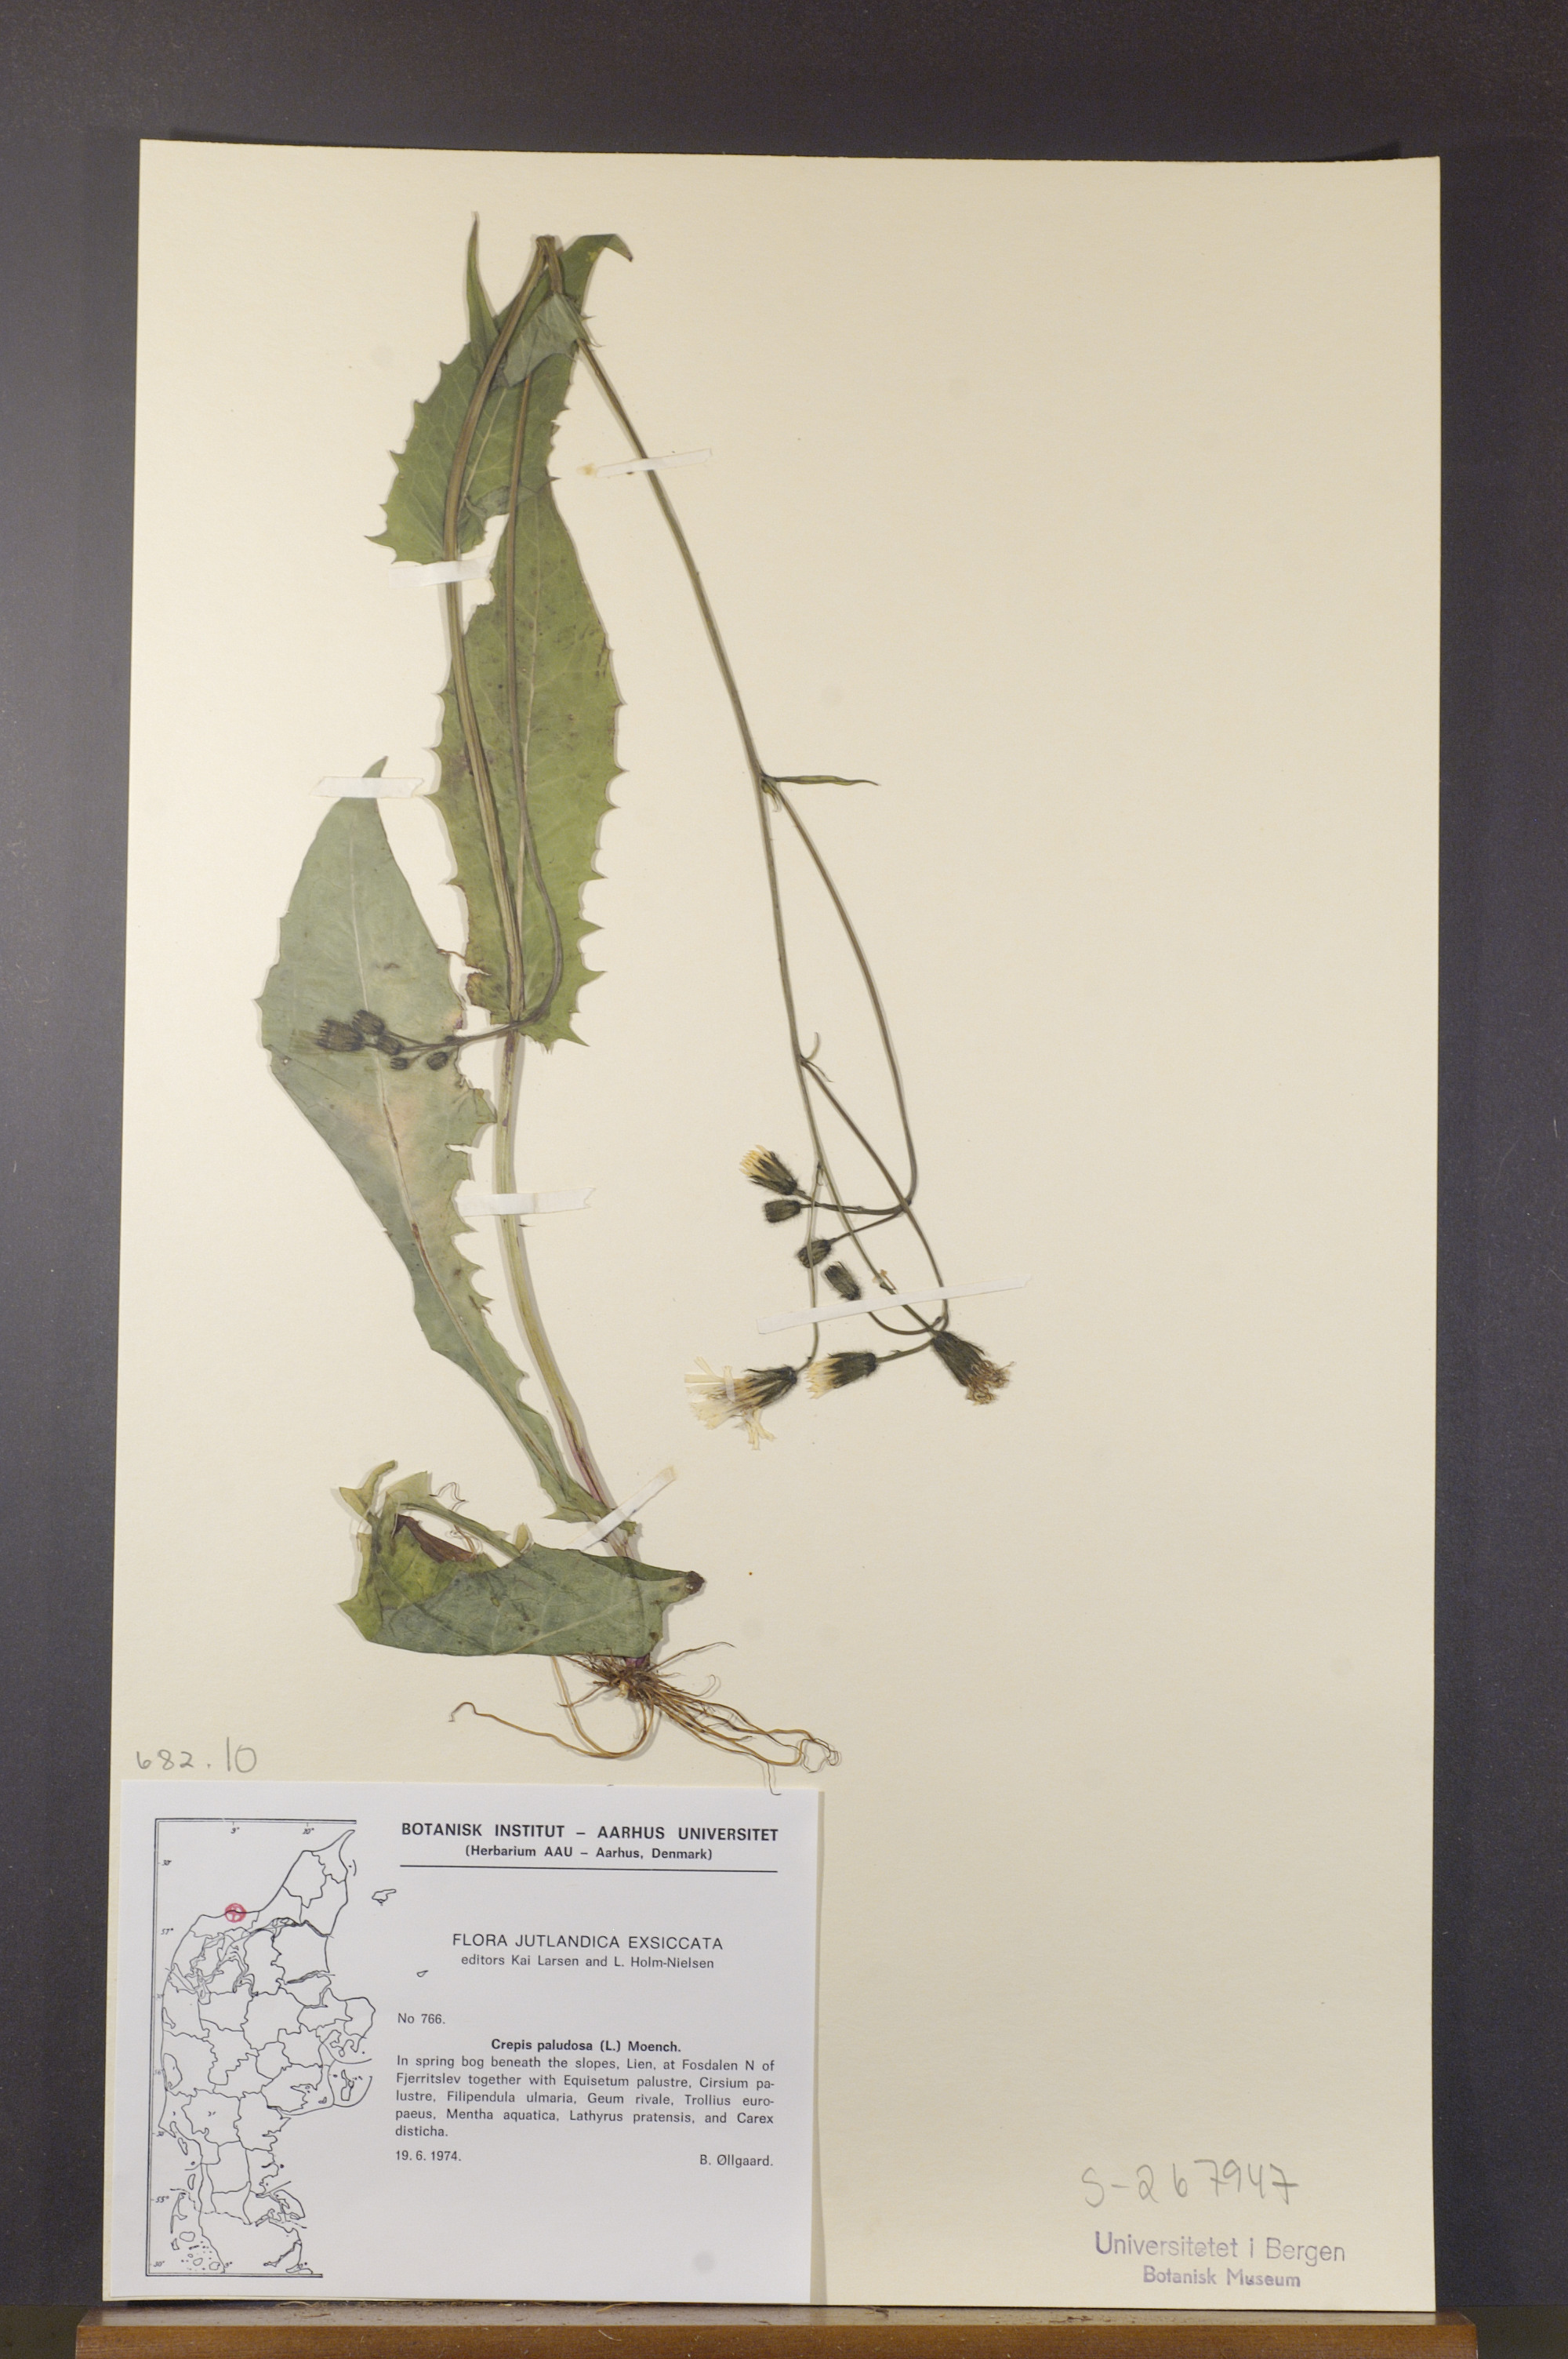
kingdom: Plantae
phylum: Tracheophyta
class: Magnoliopsida
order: Asterales
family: Asteraceae
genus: Crepis
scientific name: Crepis paludosa
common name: Marsh hawk's-beard
